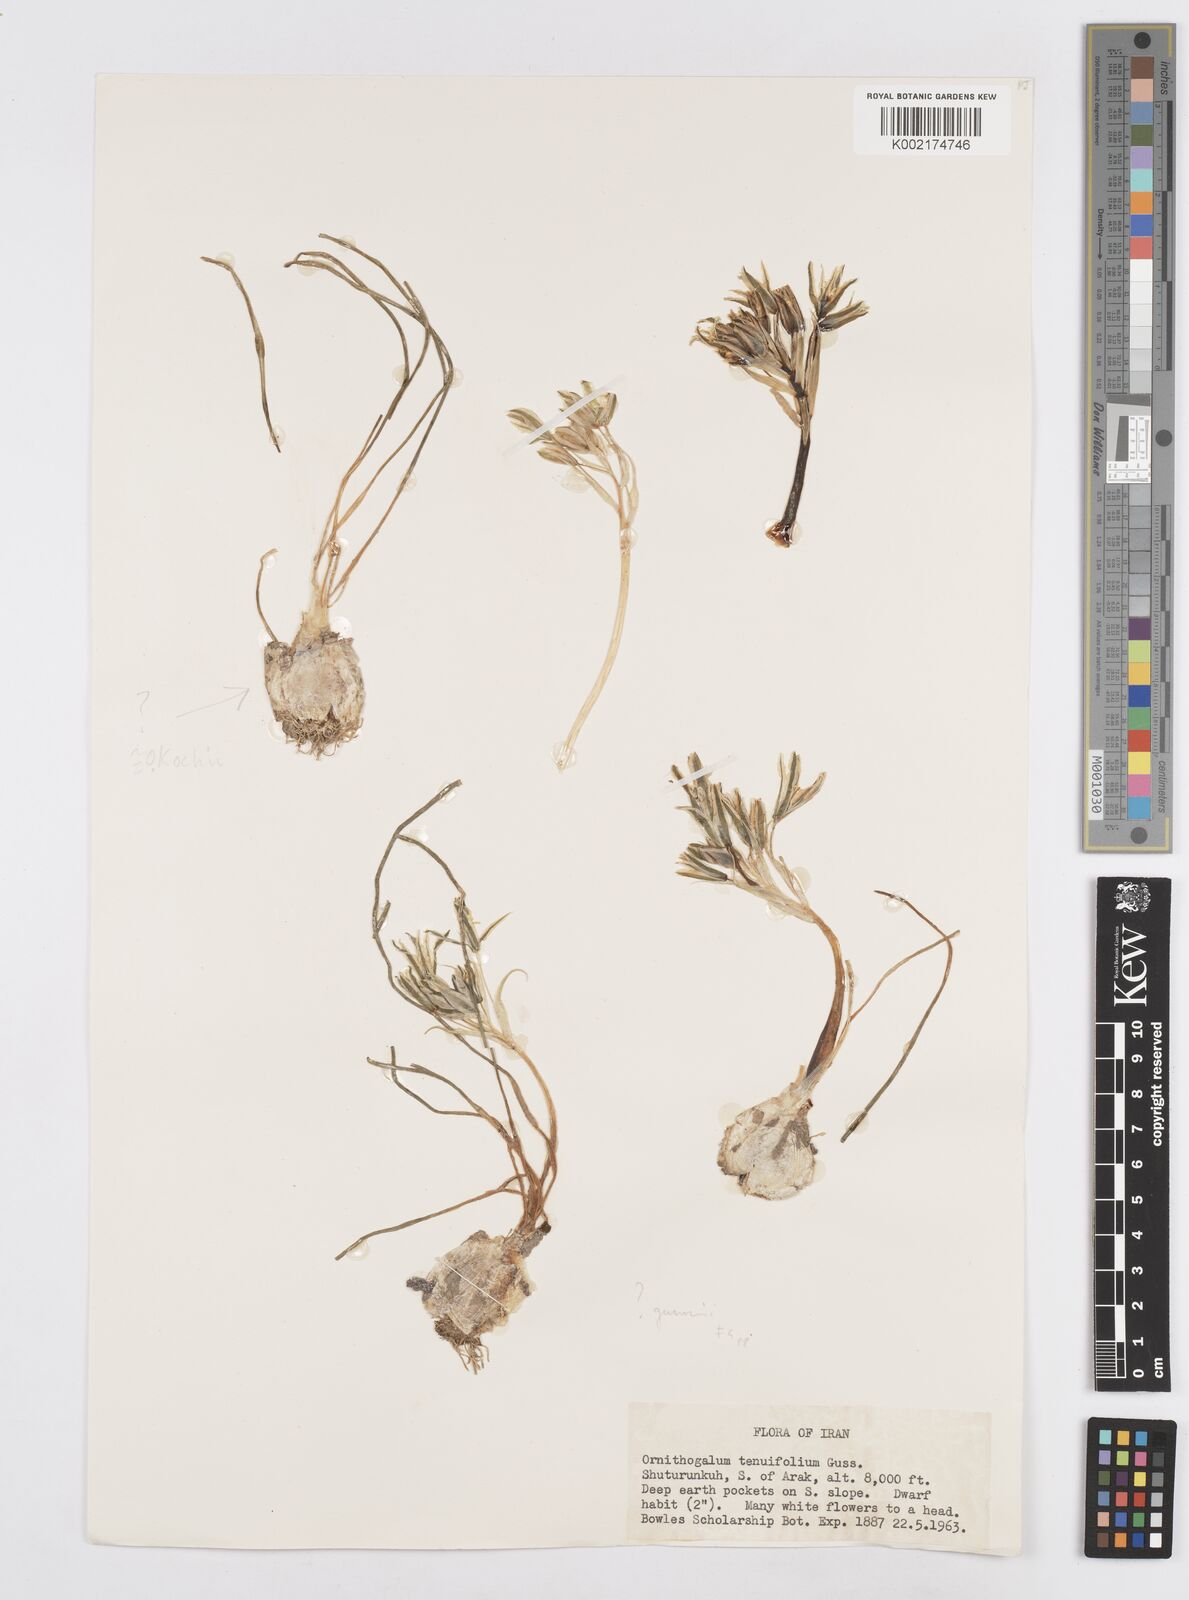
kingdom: Plantae
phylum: Tracheophyta
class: Liliopsida
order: Asparagales
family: Asparagaceae
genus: Ornithogalum
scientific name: Ornithogalum gussonei
